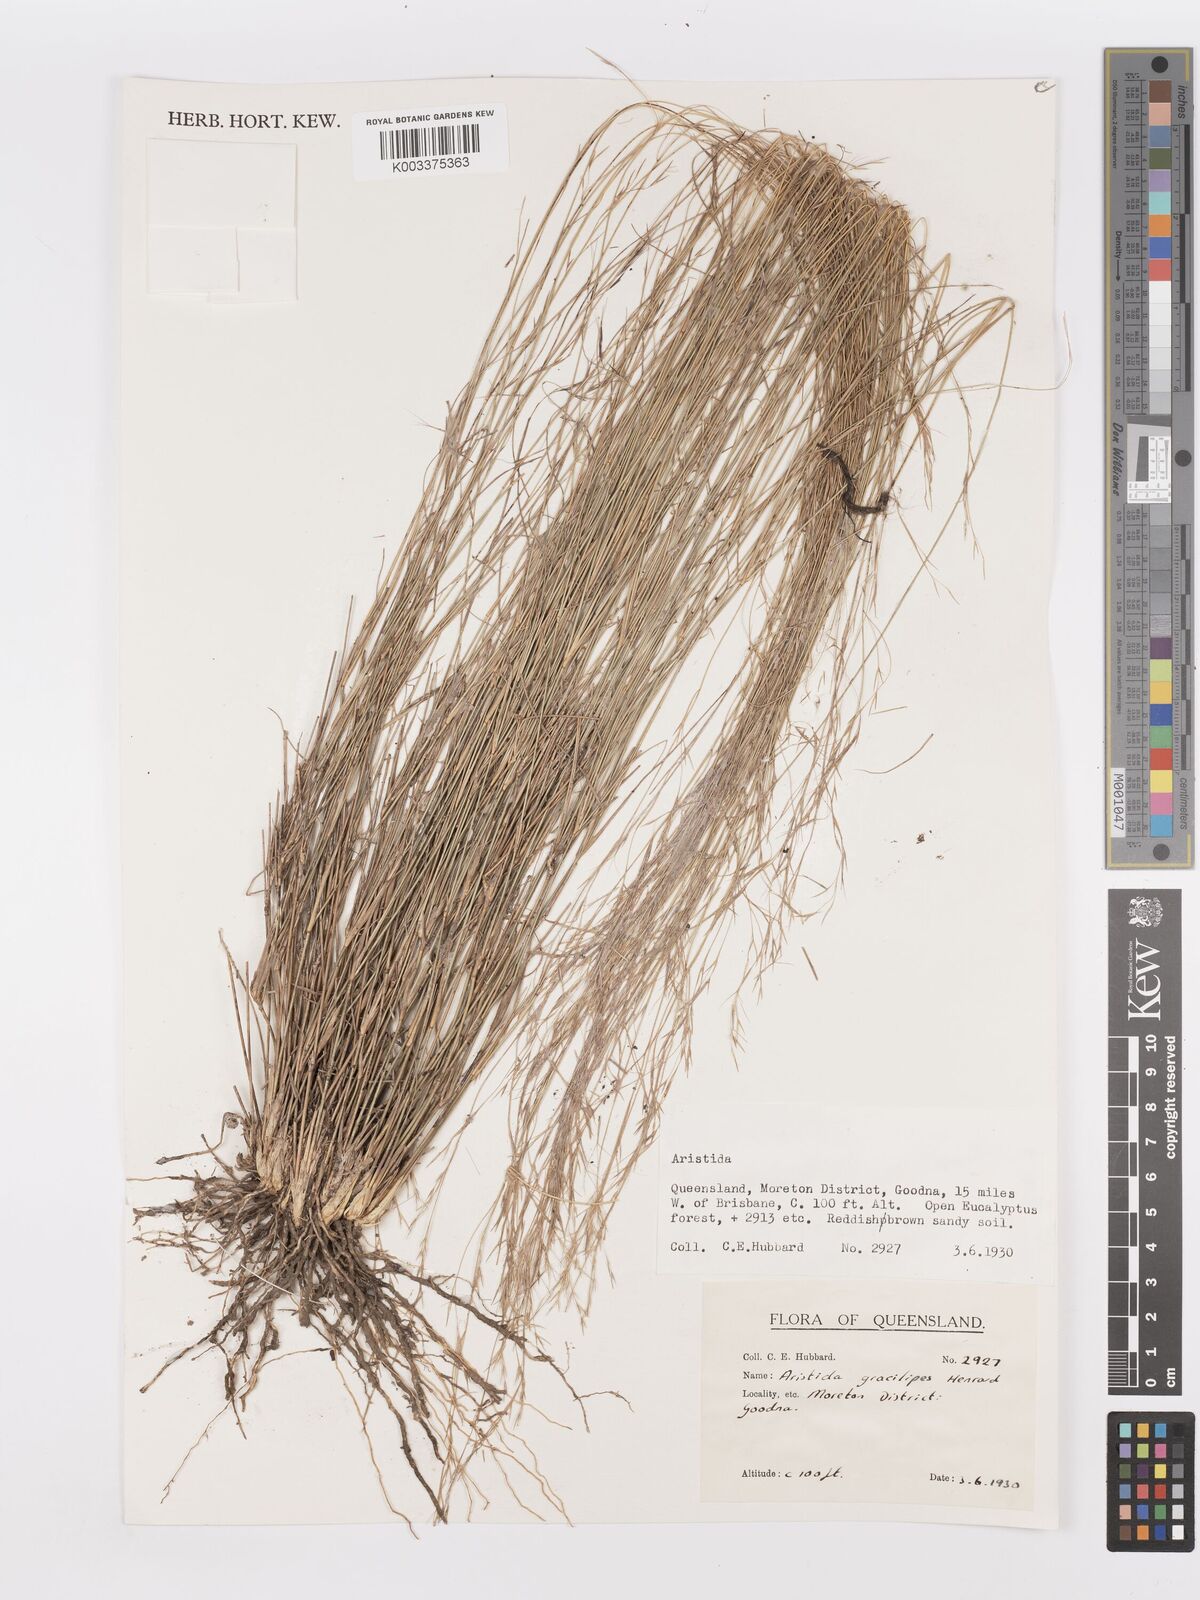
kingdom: Plantae
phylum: Tracheophyta
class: Liliopsida
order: Poales
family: Poaceae
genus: Aristida
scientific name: Aristida gracilipes
